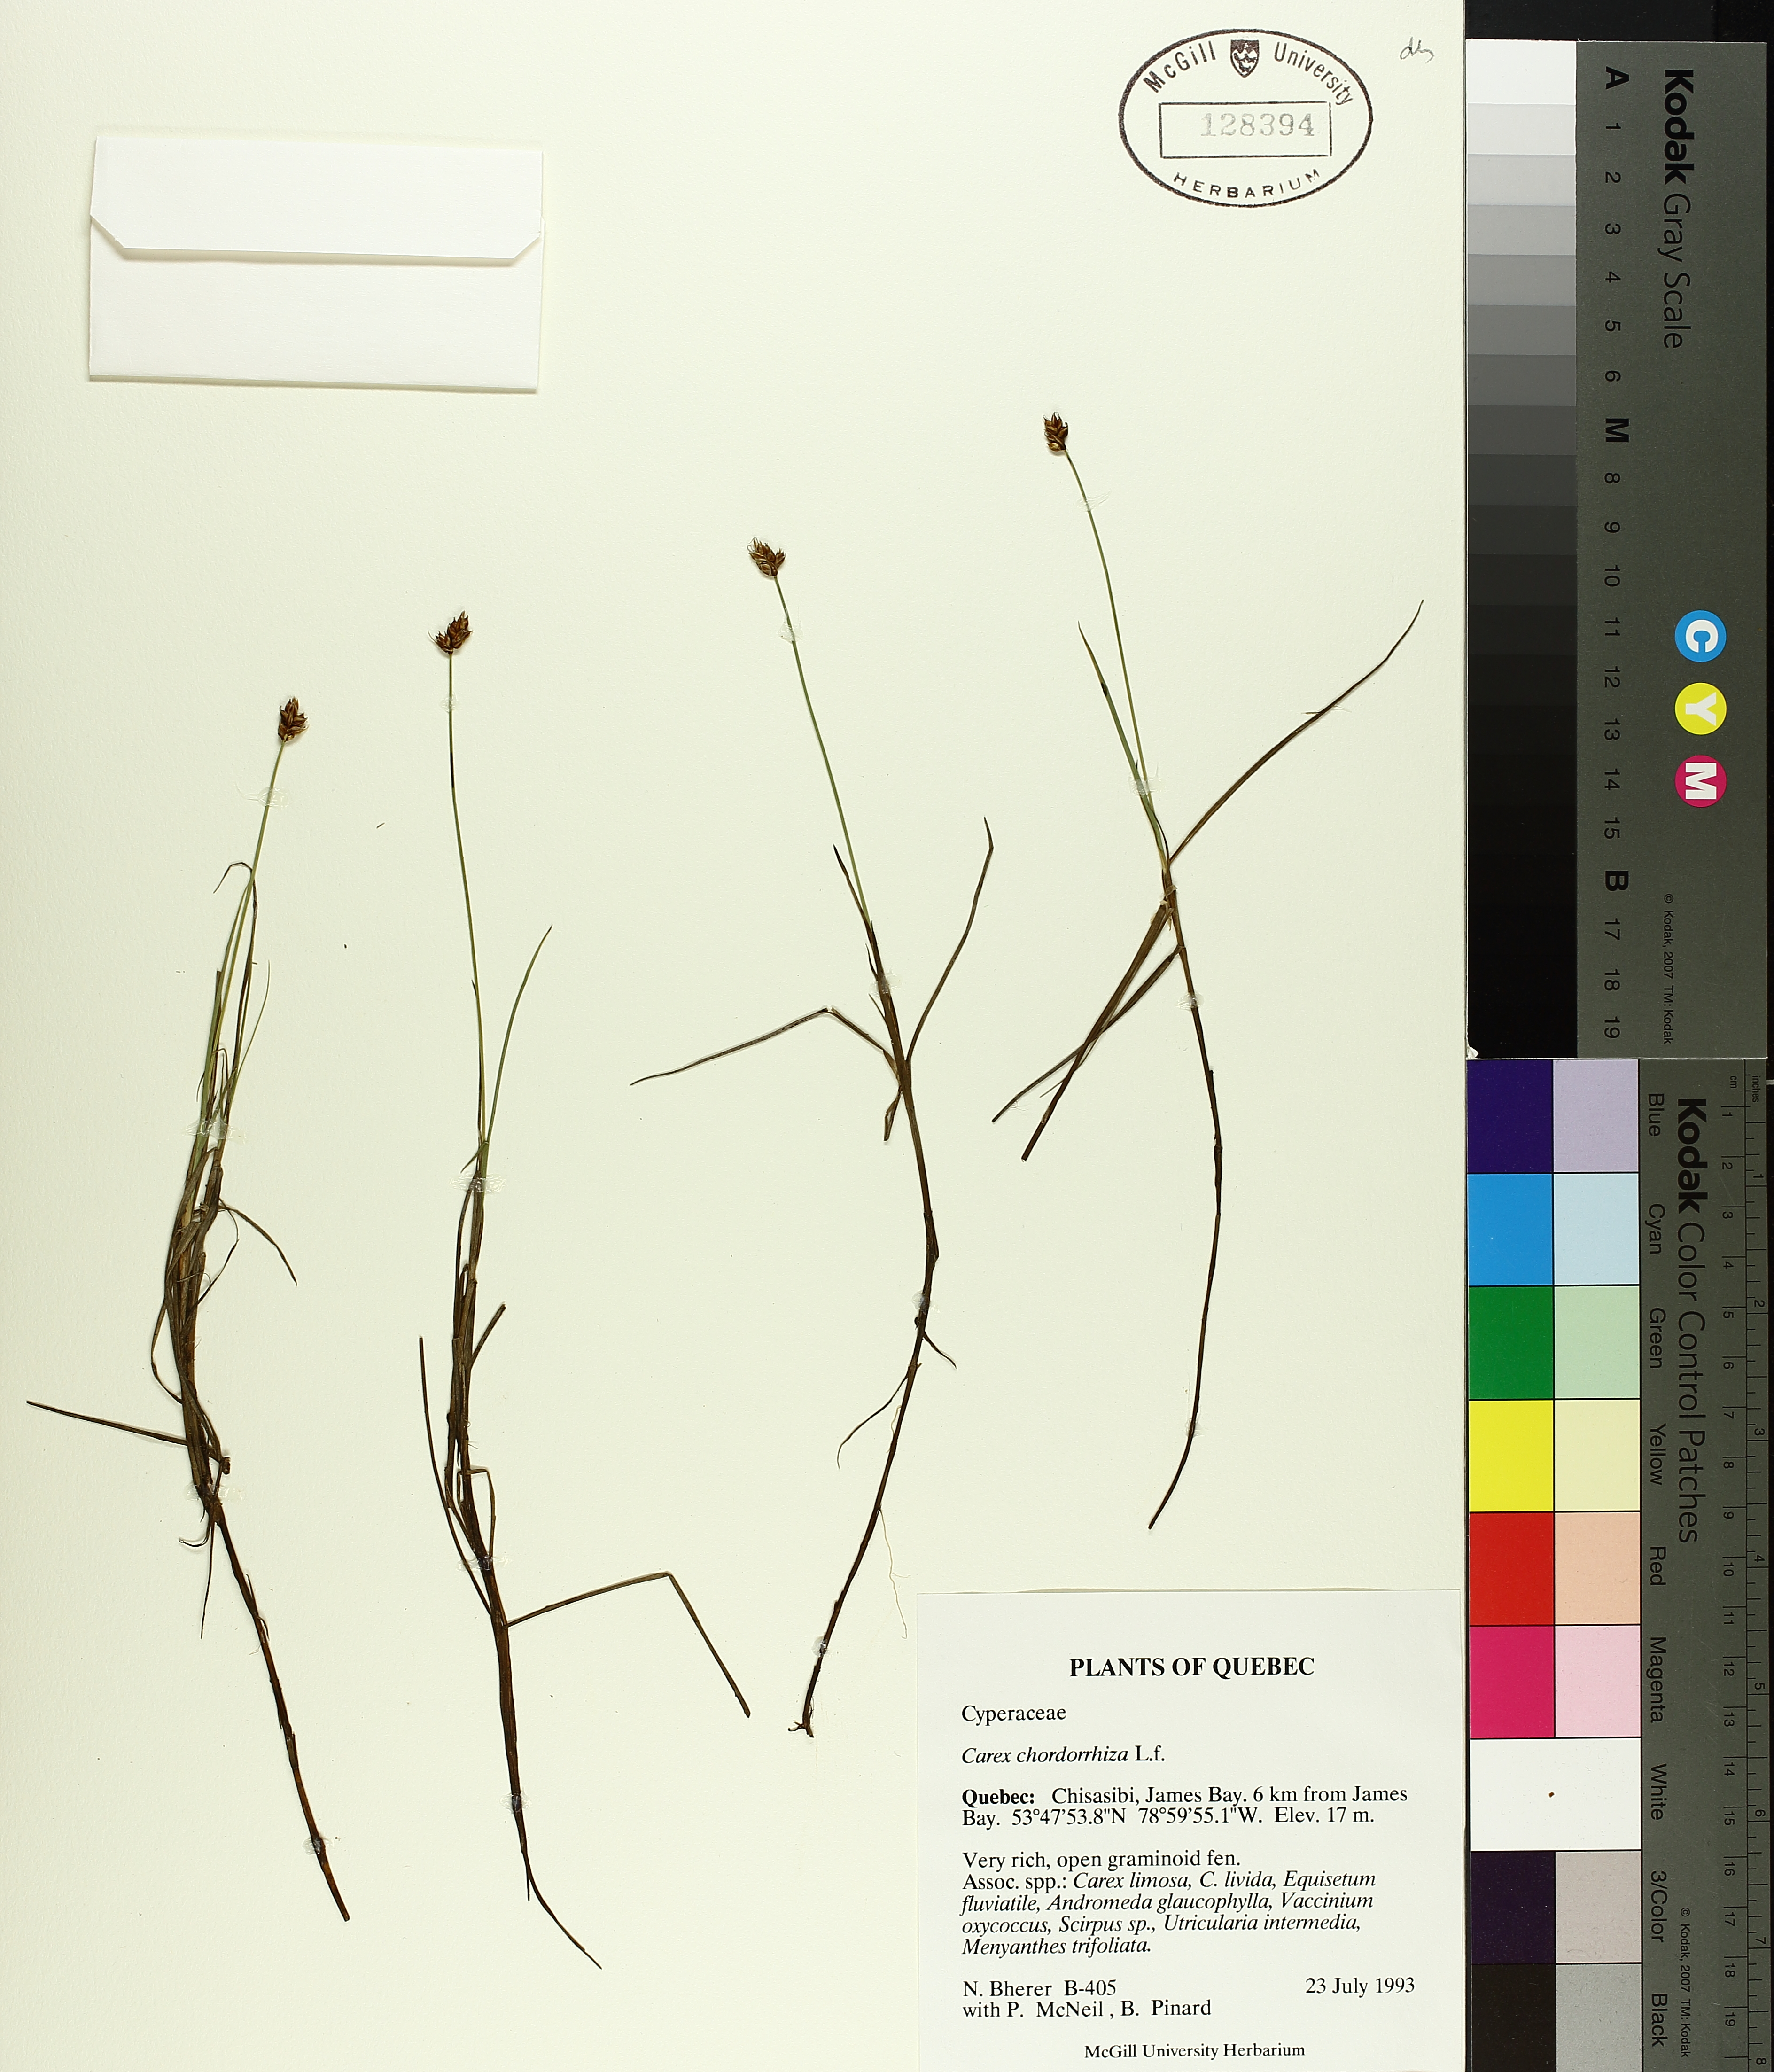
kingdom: Plantae
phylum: Tracheophyta
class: Liliopsida
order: Poales
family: Cyperaceae
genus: Carex
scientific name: Carex
